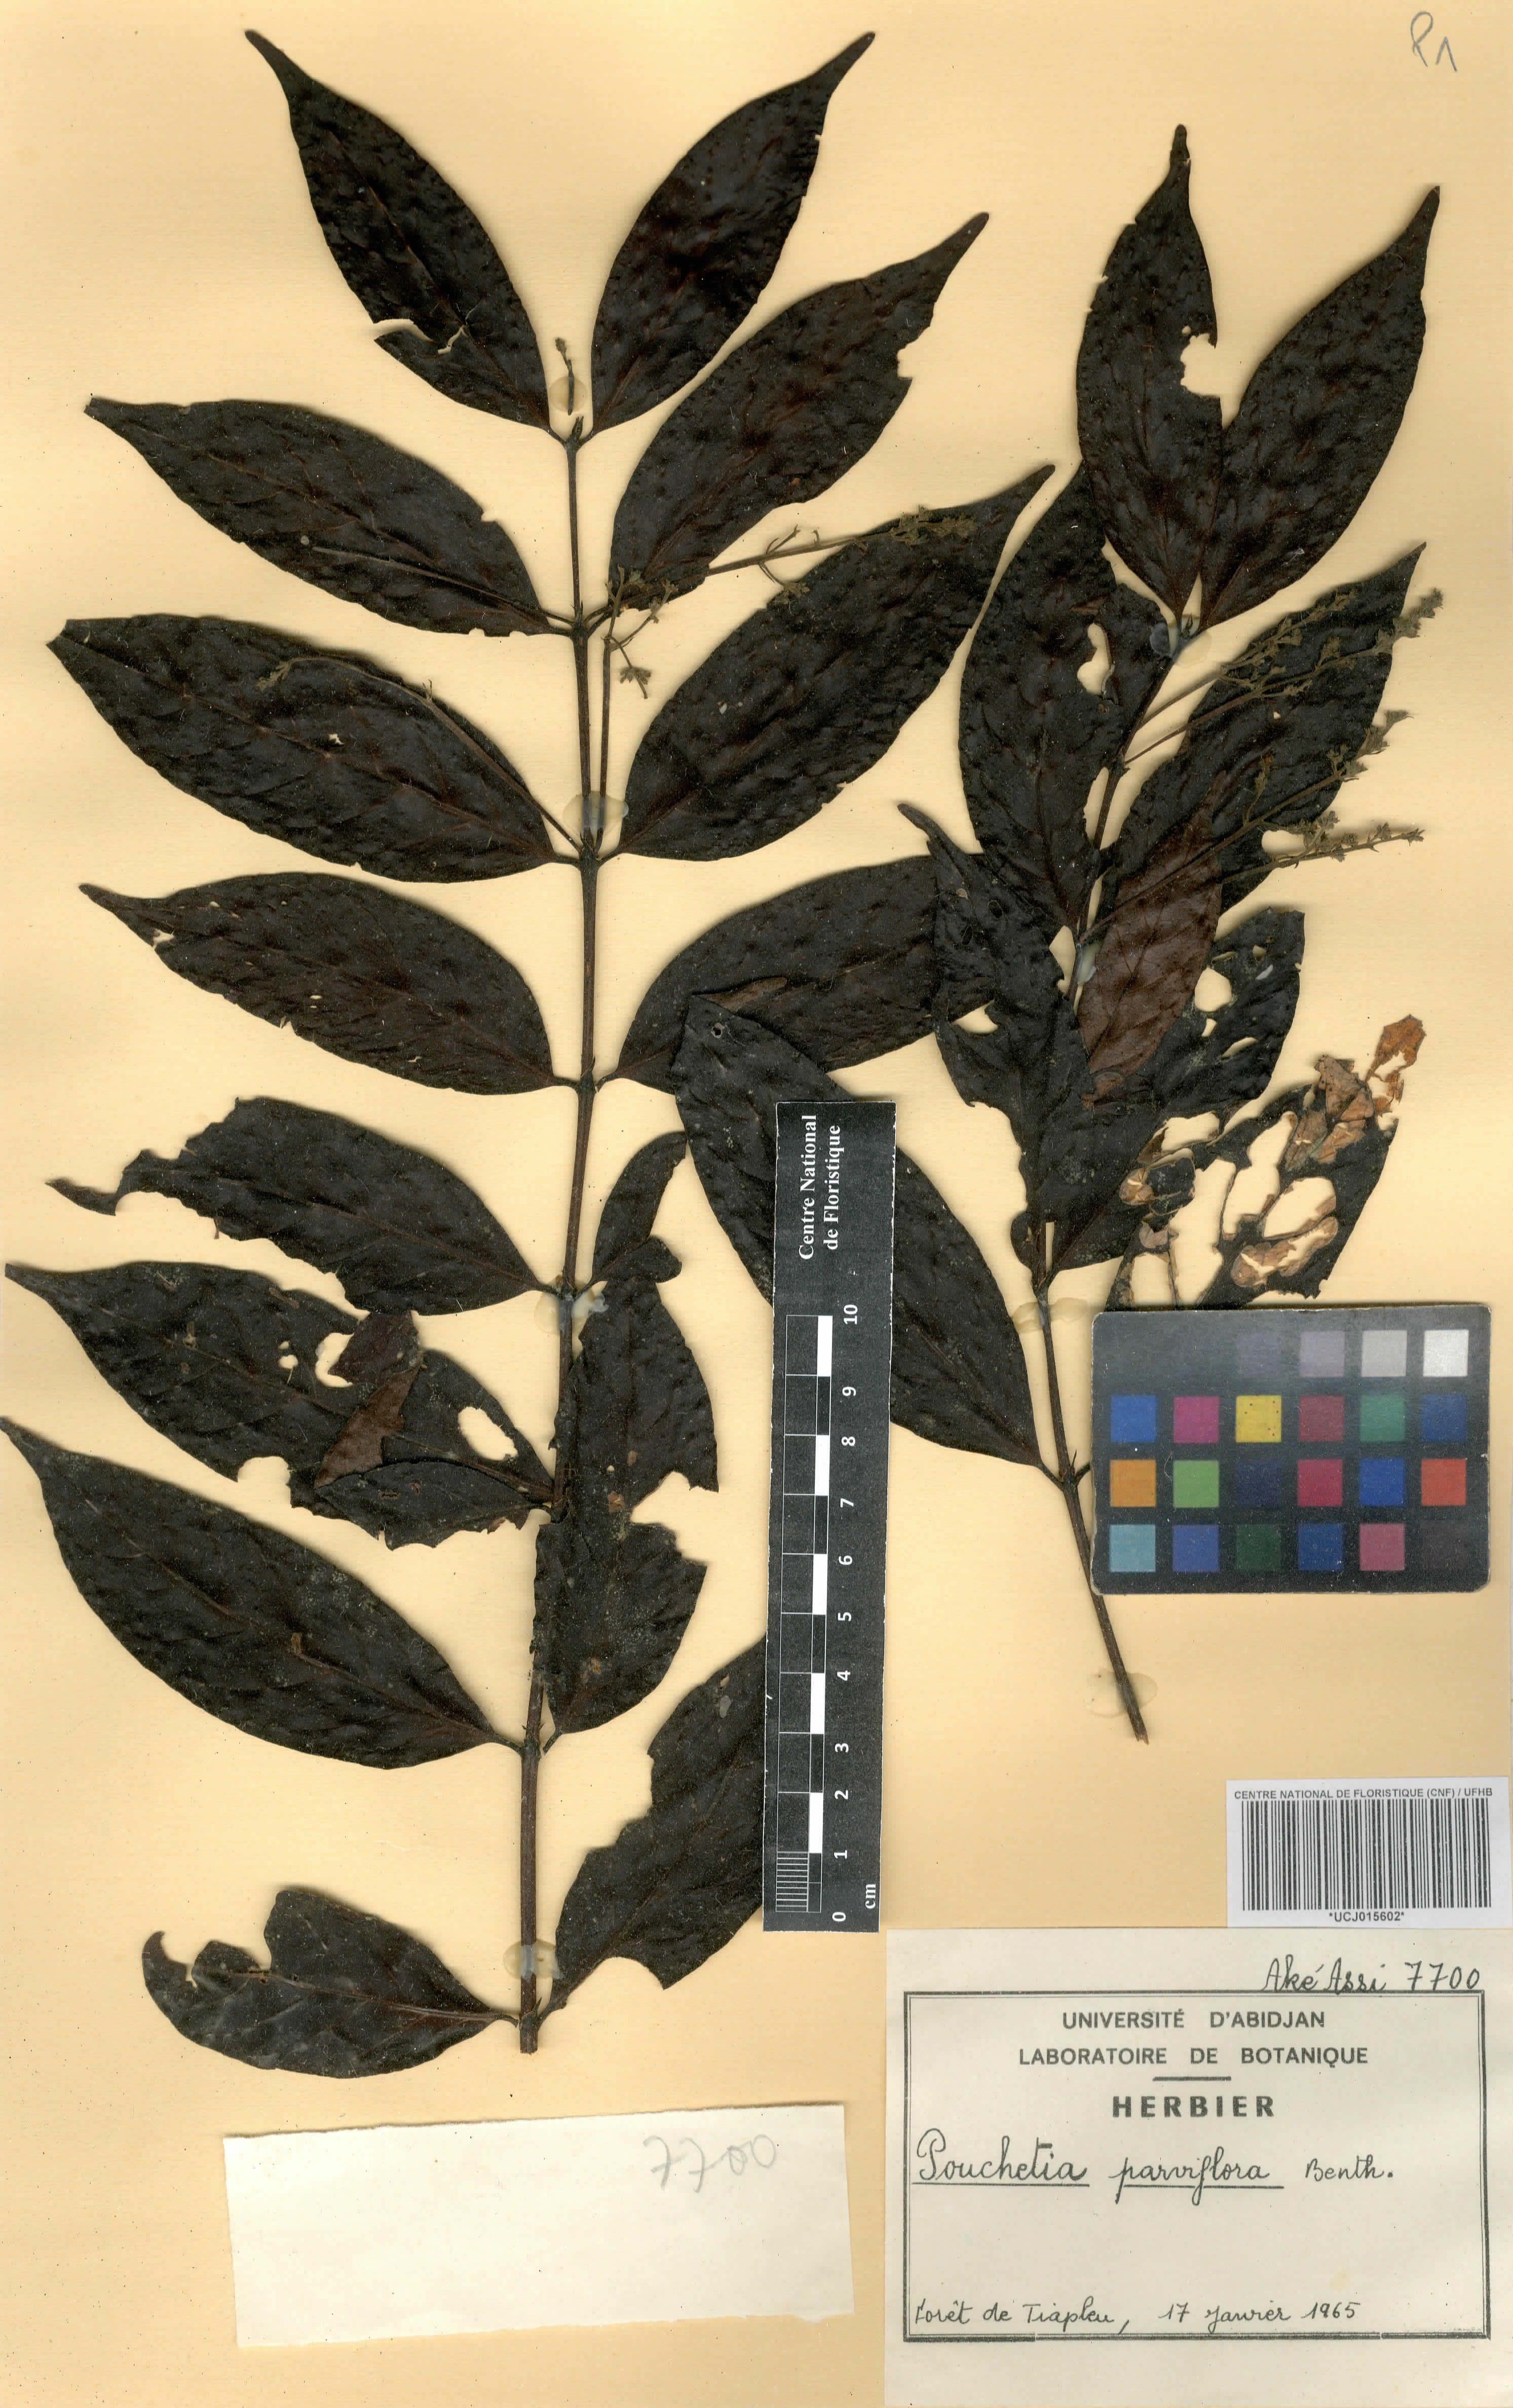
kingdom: Plantae
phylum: Tracheophyta
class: Magnoliopsida
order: Gentianales
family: Rubiaceae
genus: Pouchetia
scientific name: Pouchetia parviflora
